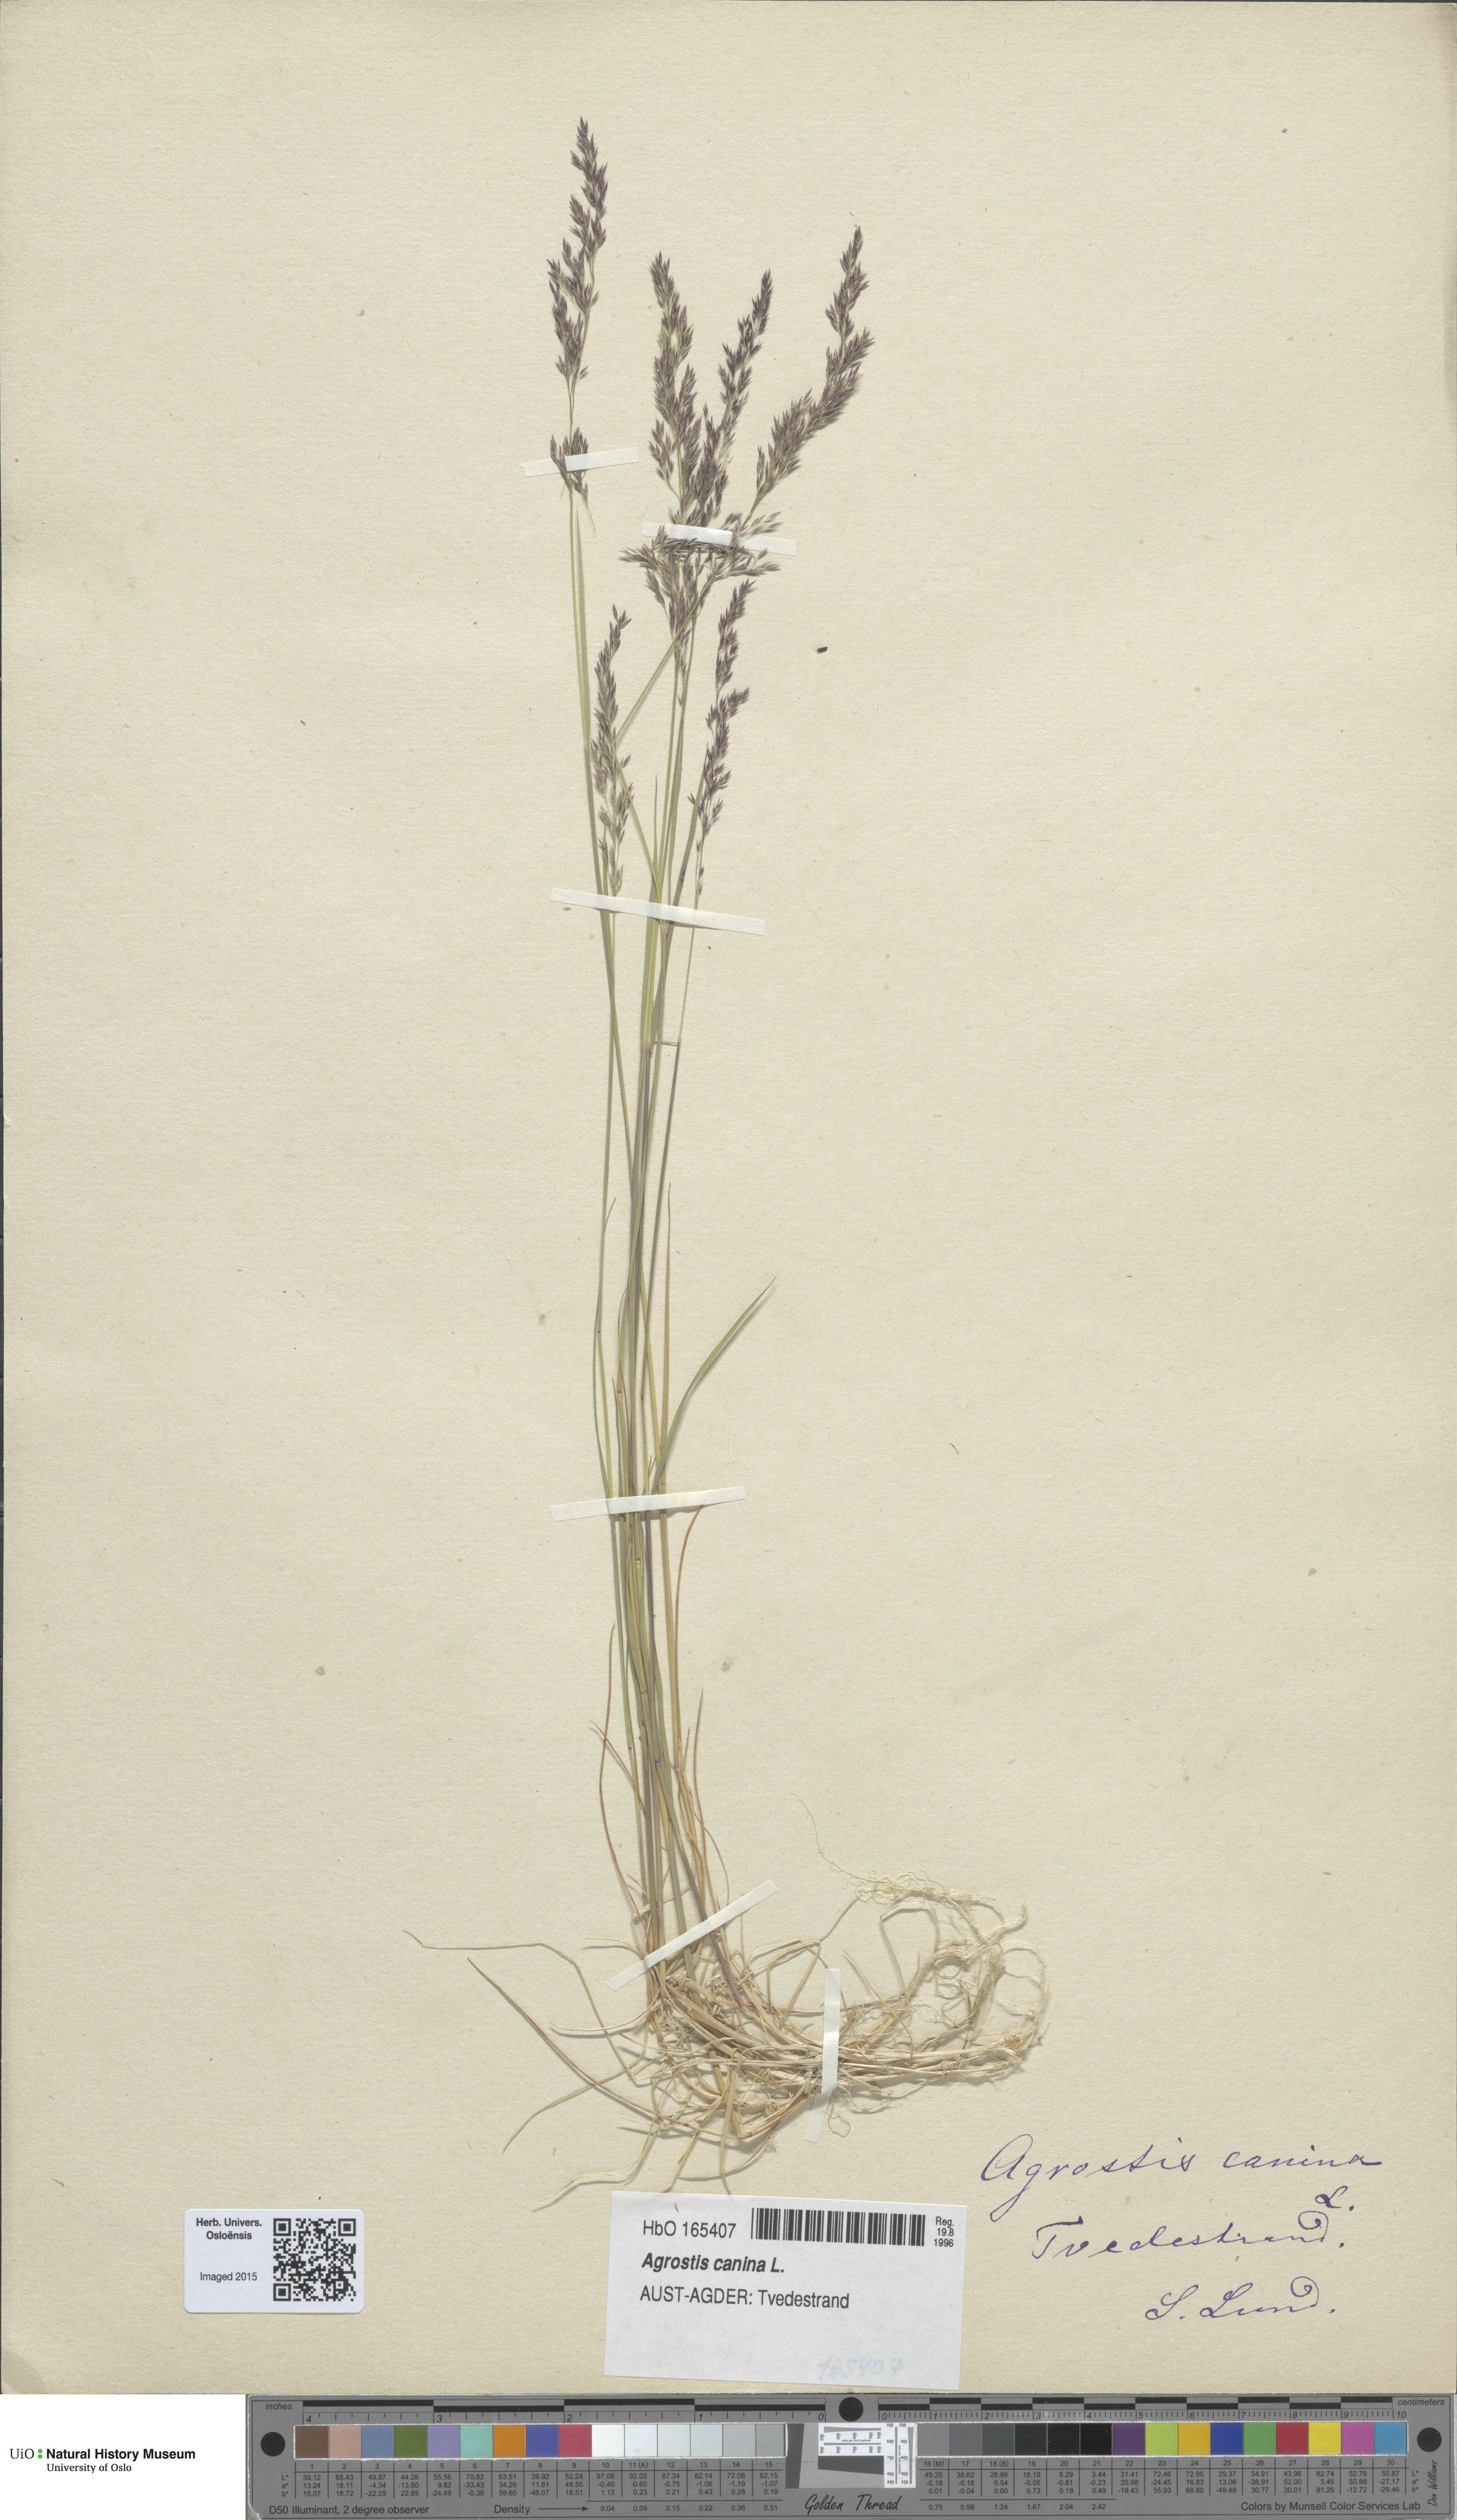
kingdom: Plantae
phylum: Tracheophyta
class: Liliopsida
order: Poales
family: Poaceae
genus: Agrostis
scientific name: Agrostis canina
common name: Velvet bent
